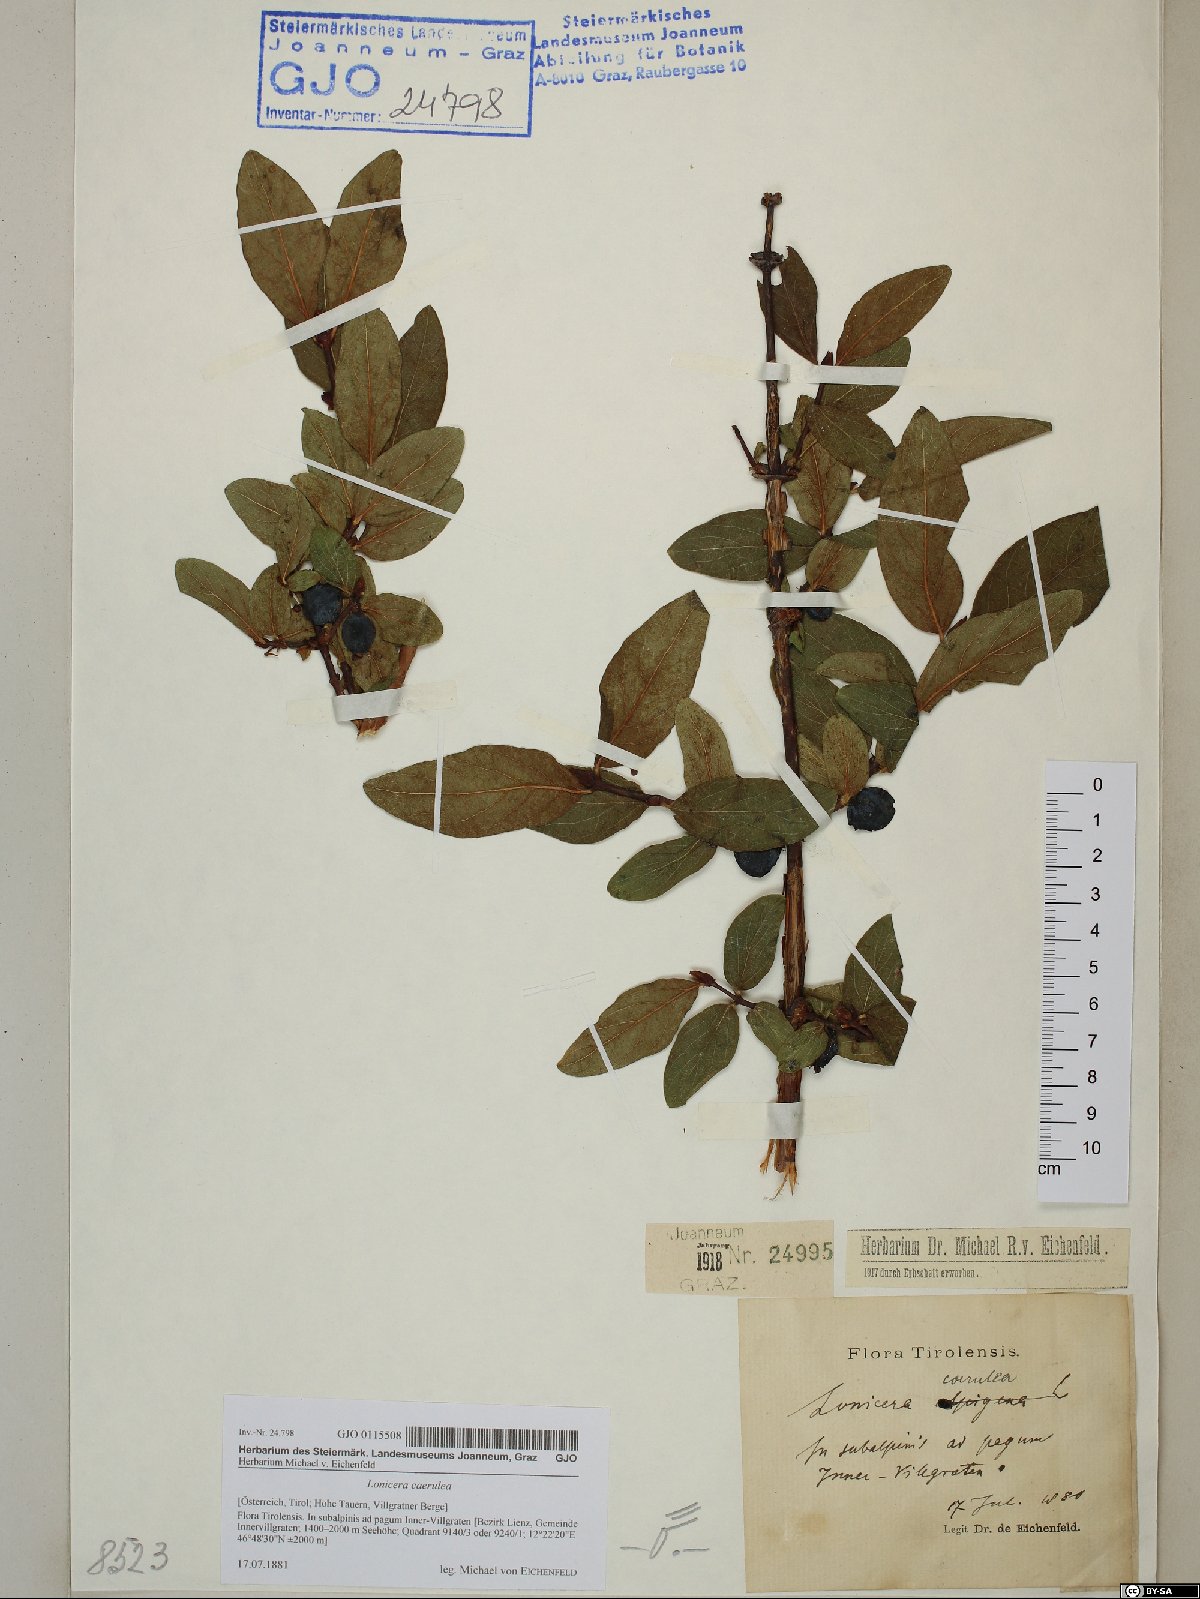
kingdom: Plantae
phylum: Tracheophyta
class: Magnoliopsida
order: Dipsacales
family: Caprifoliaceae
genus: Lonicera
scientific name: Lonicera caerulea
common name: Blue honeysuckle
